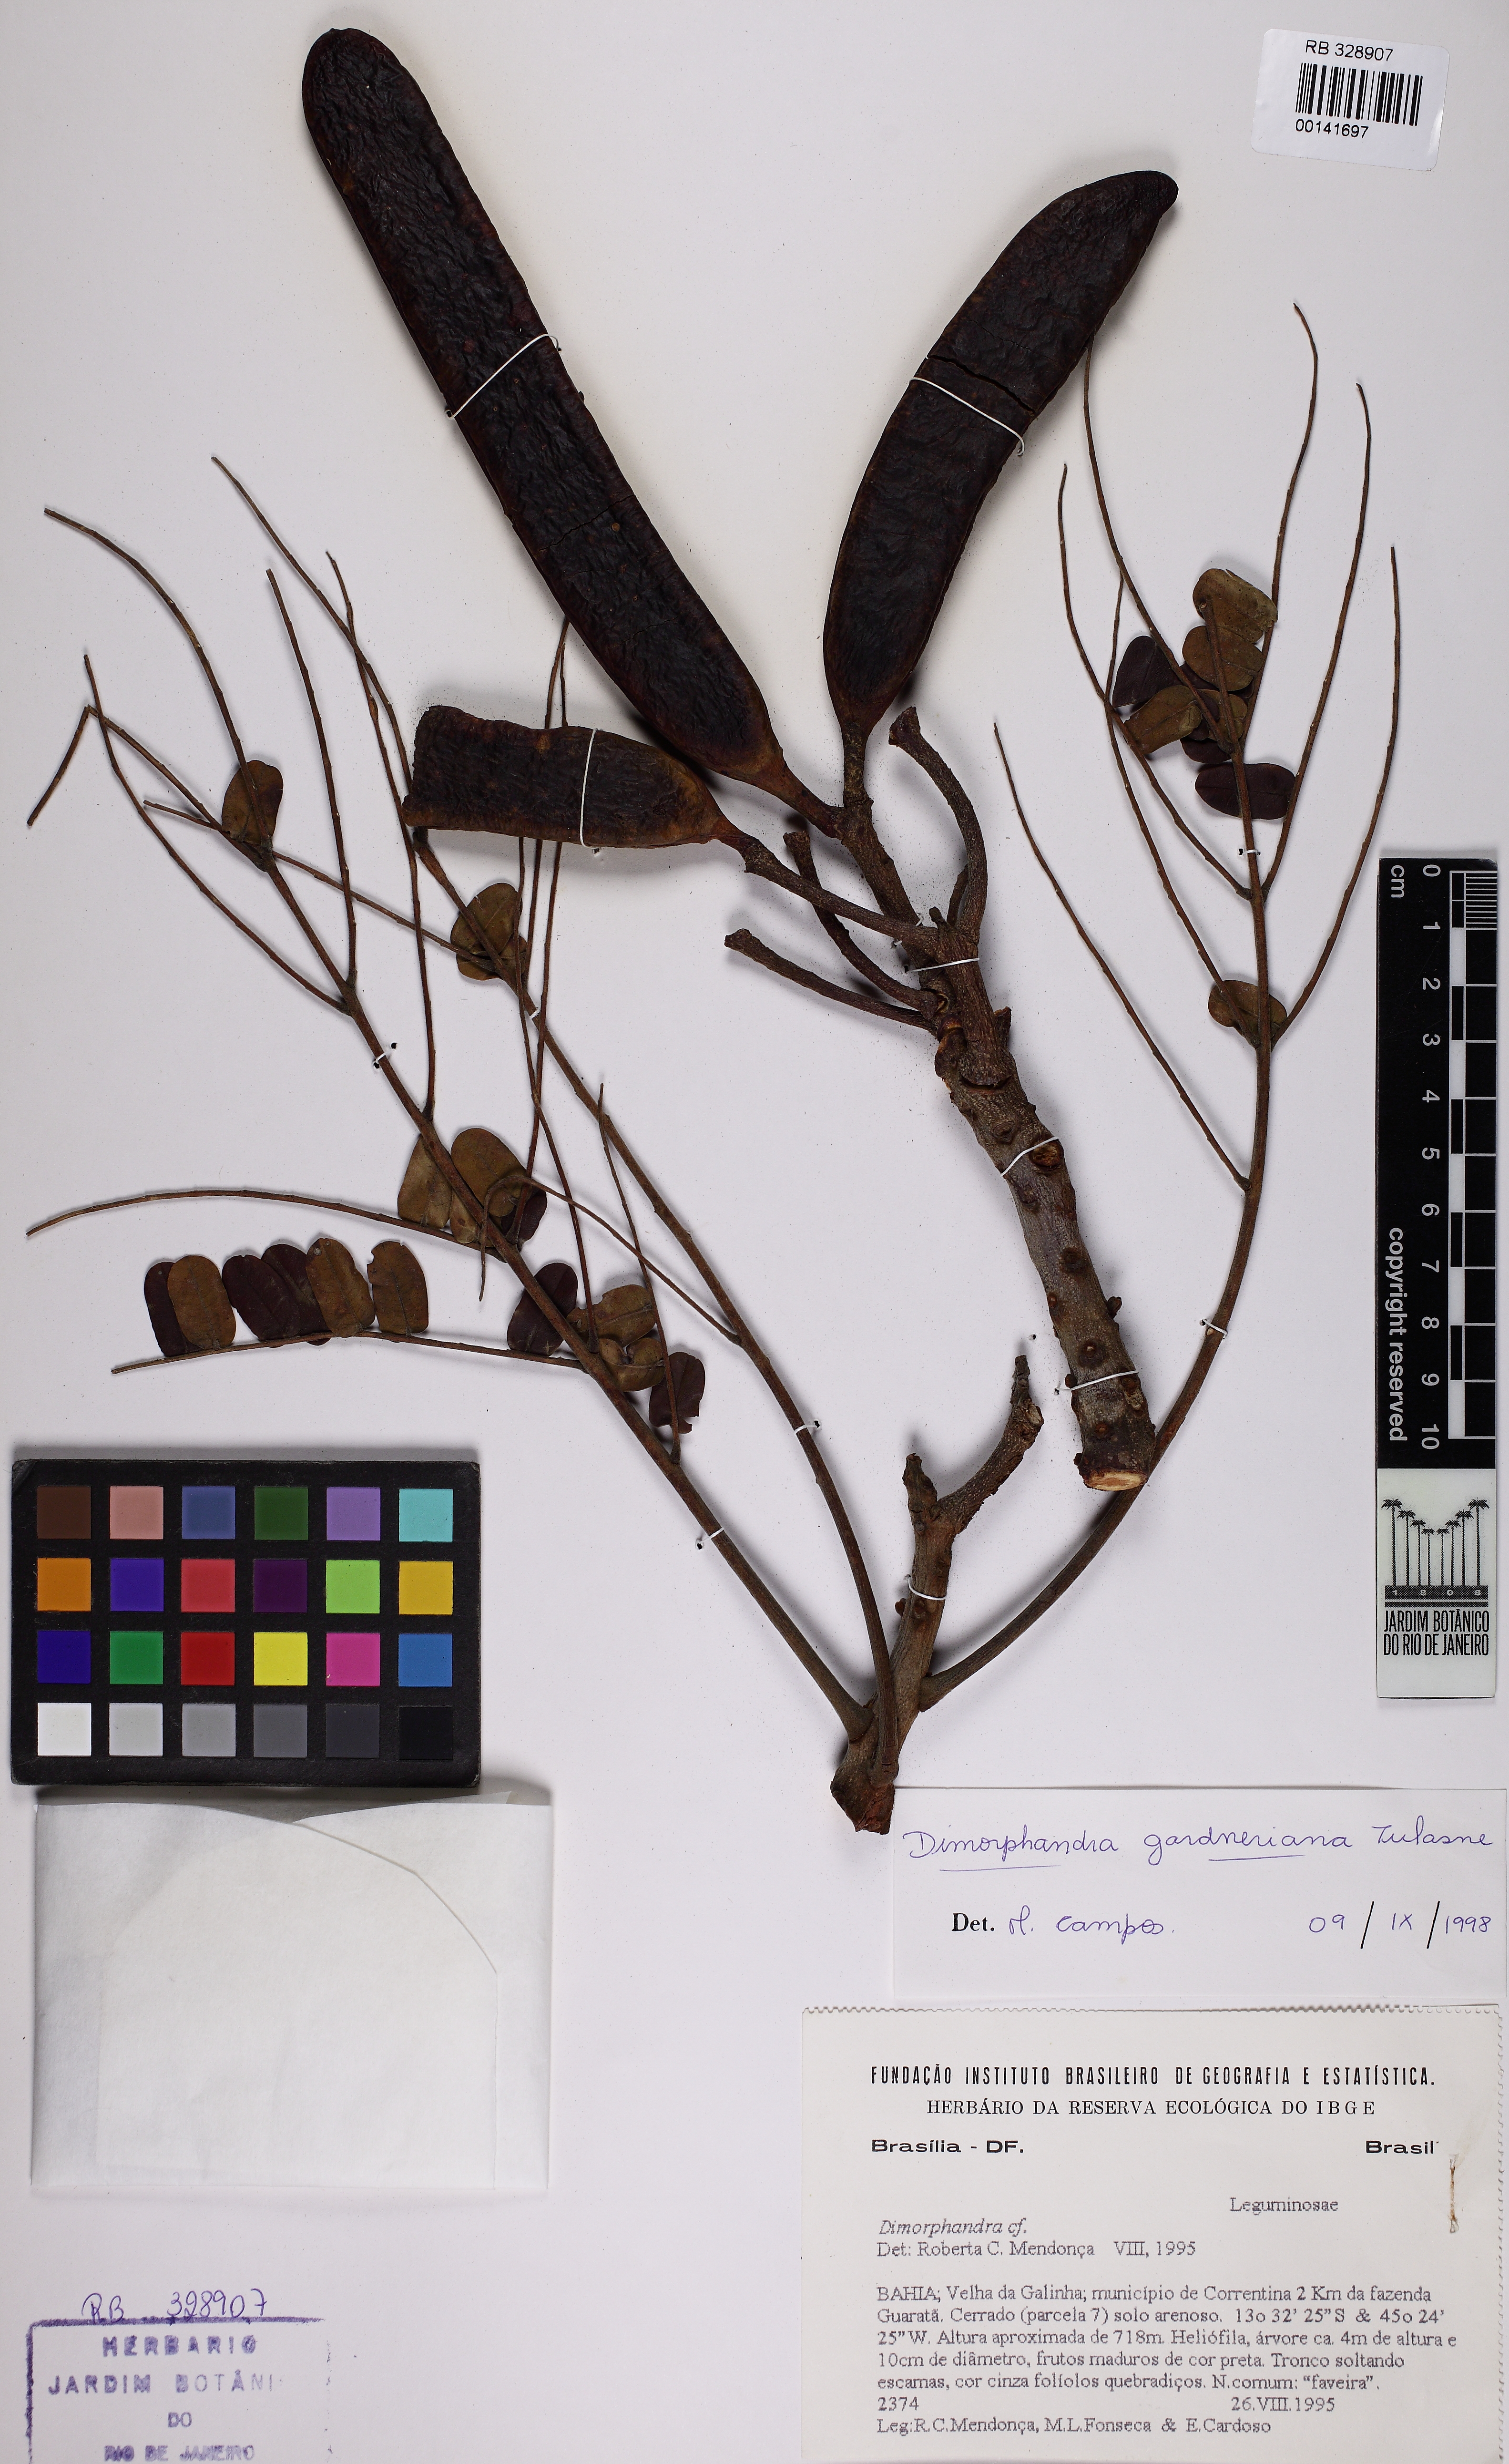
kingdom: Plantae
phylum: Tracheophyta
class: Magnoliopsida
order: Fabales
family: Fabaceae
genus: Dimorphandra
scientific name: Dimorphandra gardneriana
